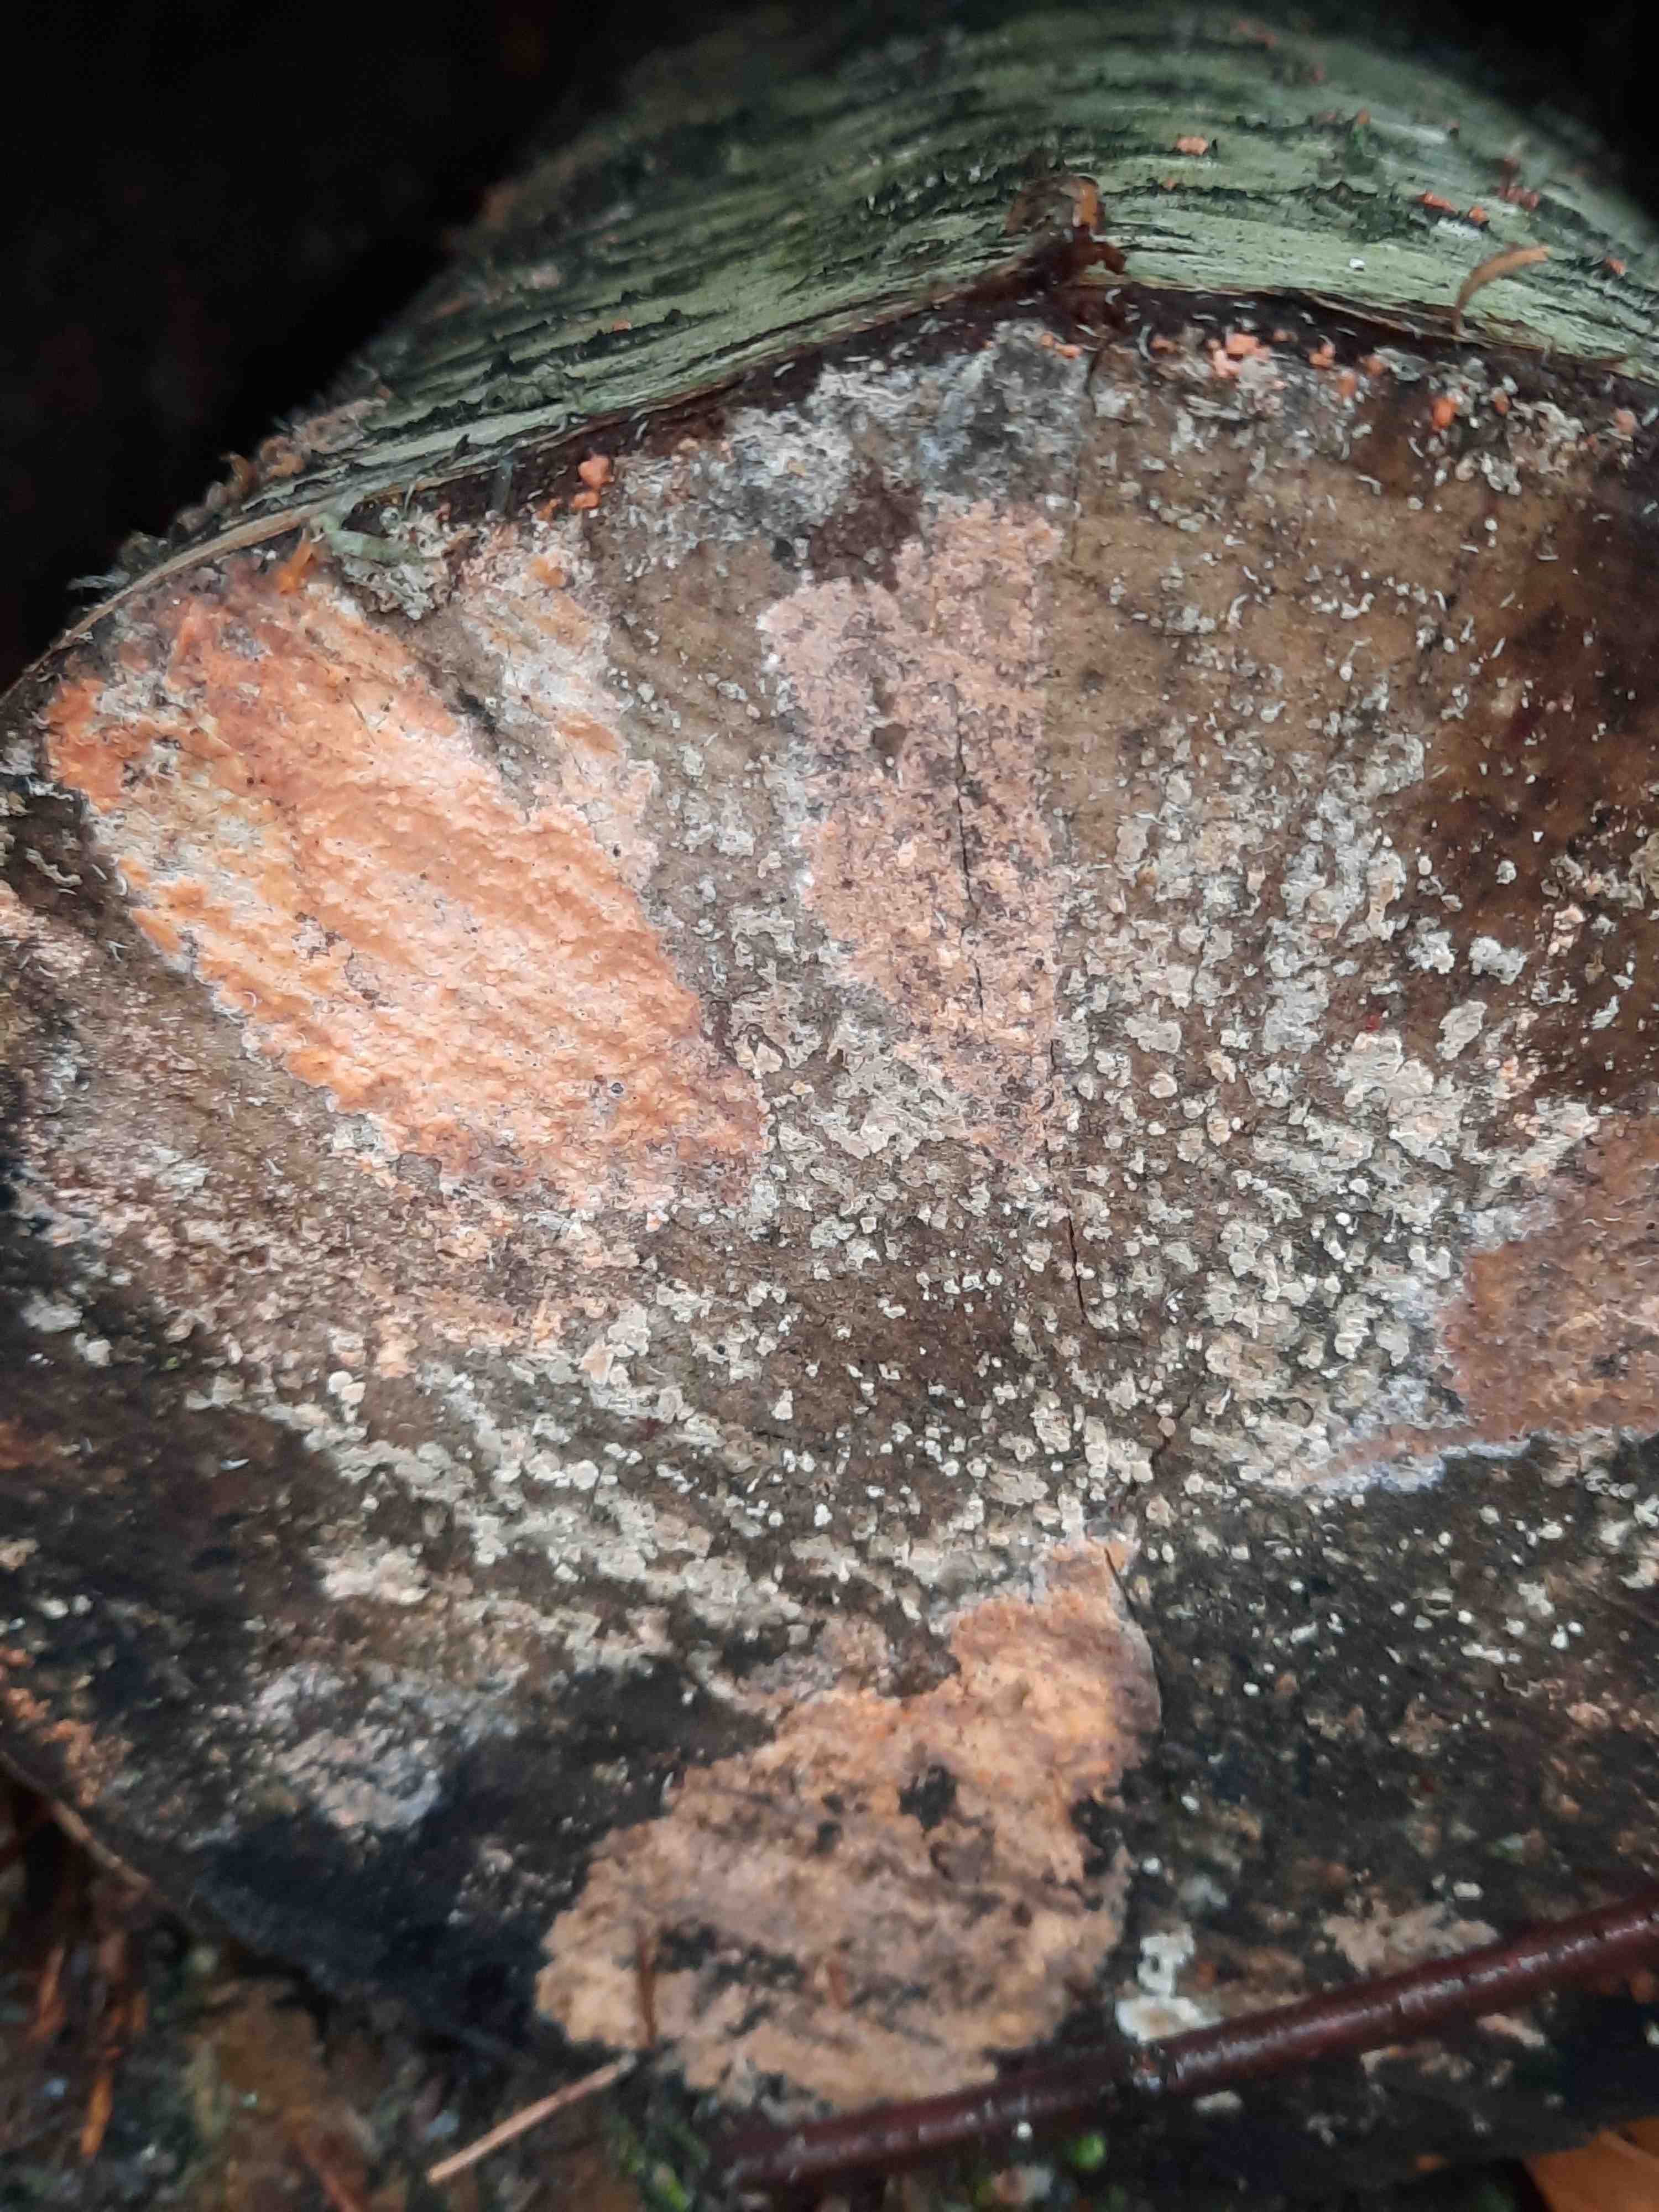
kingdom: Fungi
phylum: Basidiomycota
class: Agaricomycetes
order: Russulales
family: Peniophoraceae
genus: Peniophora
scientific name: Peniophora incarnata
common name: laksefarvet voksskind
